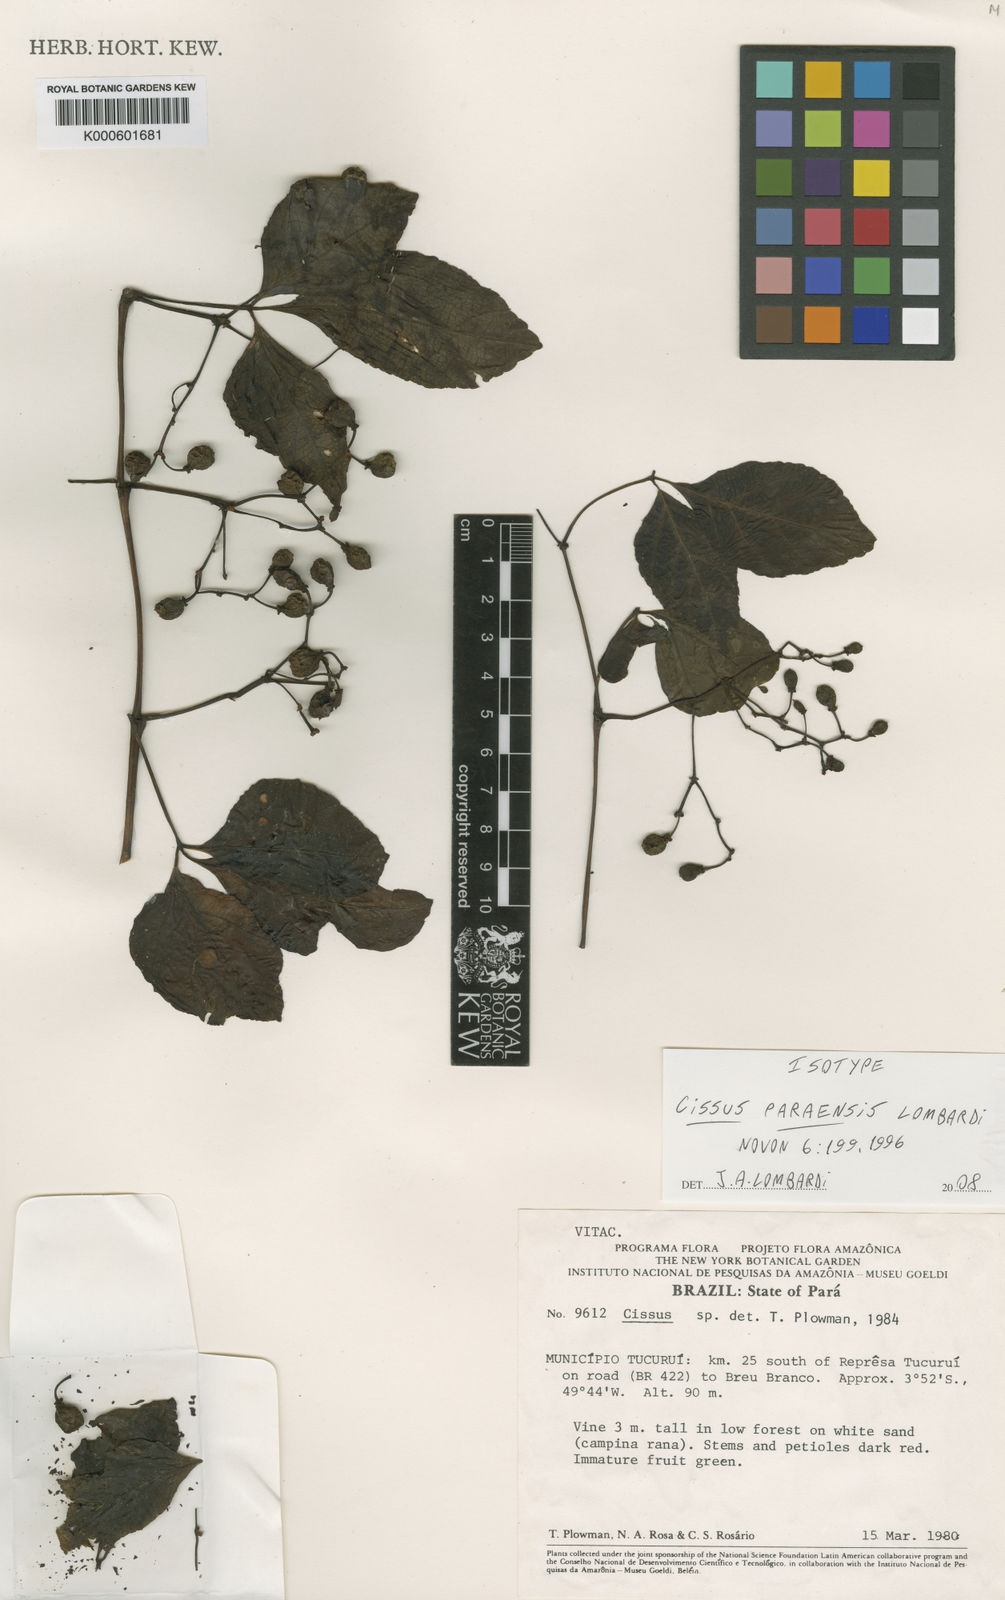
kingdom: Plantae
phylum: Tracheophyta
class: Magnoliopsida
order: Vitales
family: Vitaceae
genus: Cissus
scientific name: Cissus paraensis
